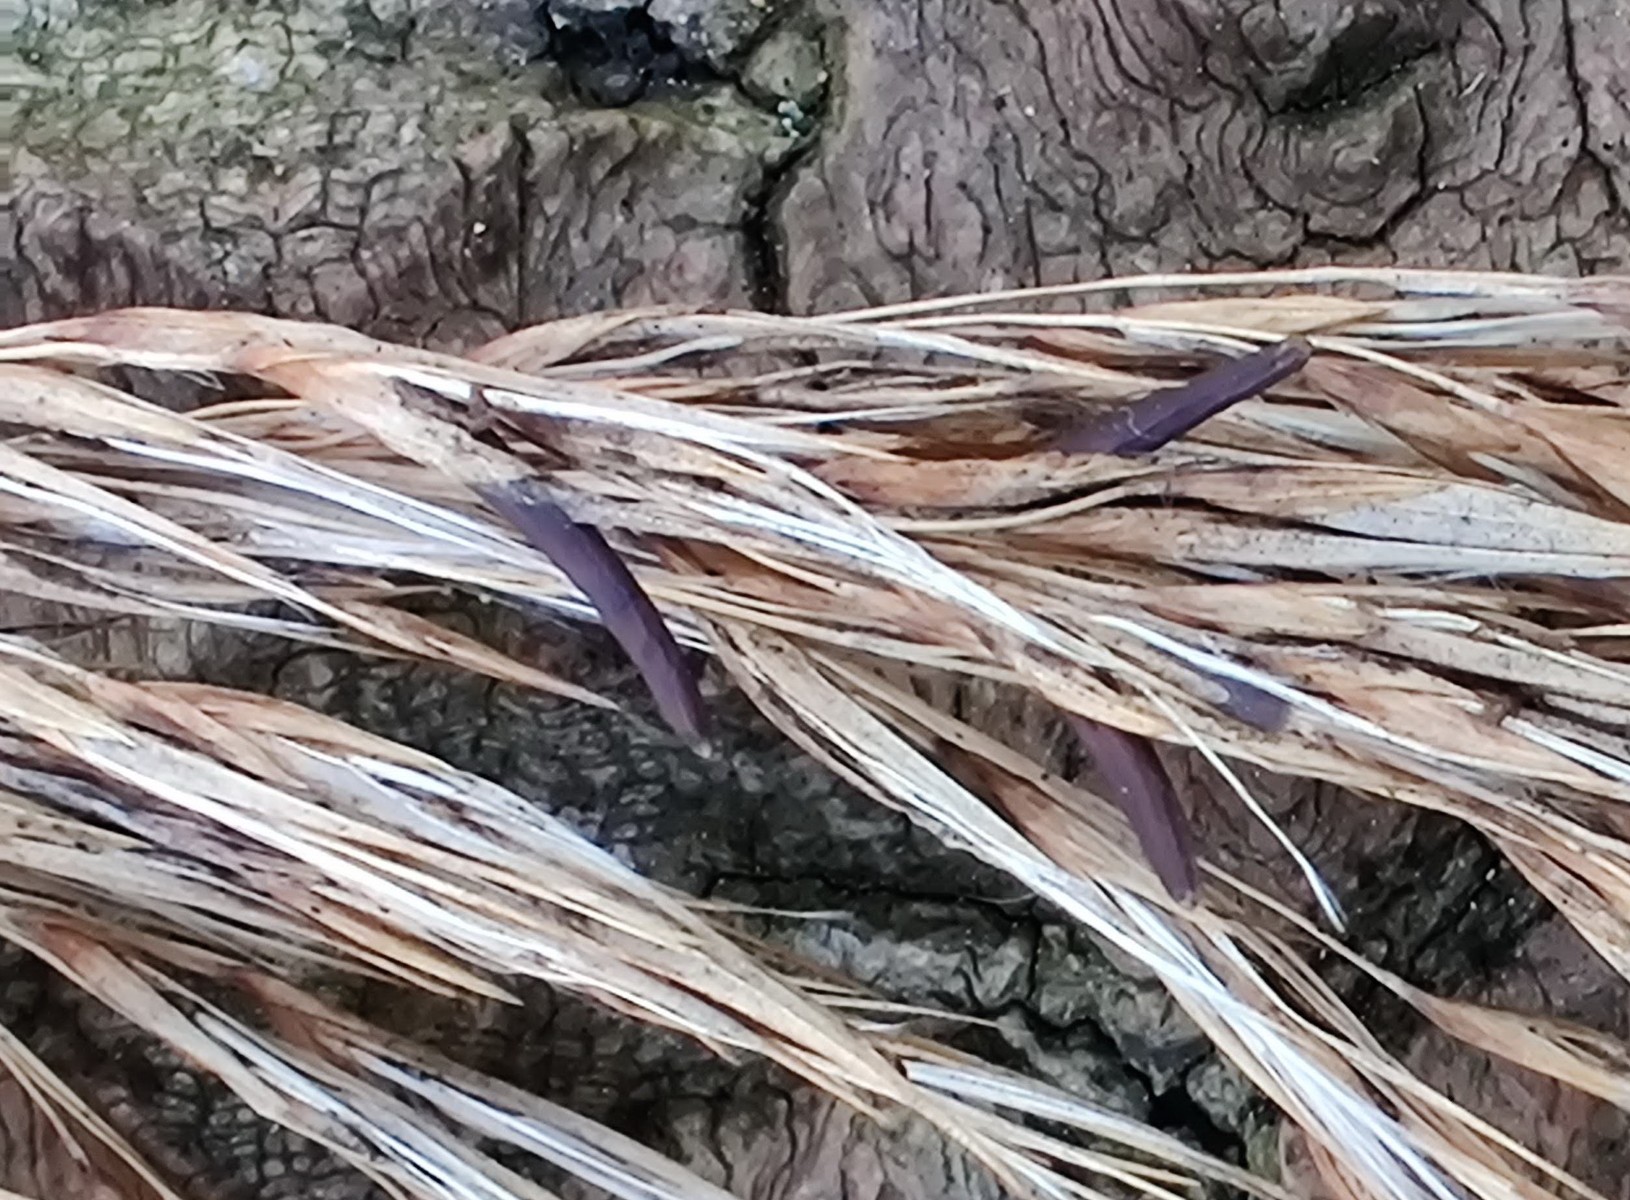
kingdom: Fungi
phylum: Ascomycota
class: Sordariomycetes
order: Hypocreales
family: Clavicipitaceae
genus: Claviceps
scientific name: Claviceps arundinis
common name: tagrør-meldrøjer
